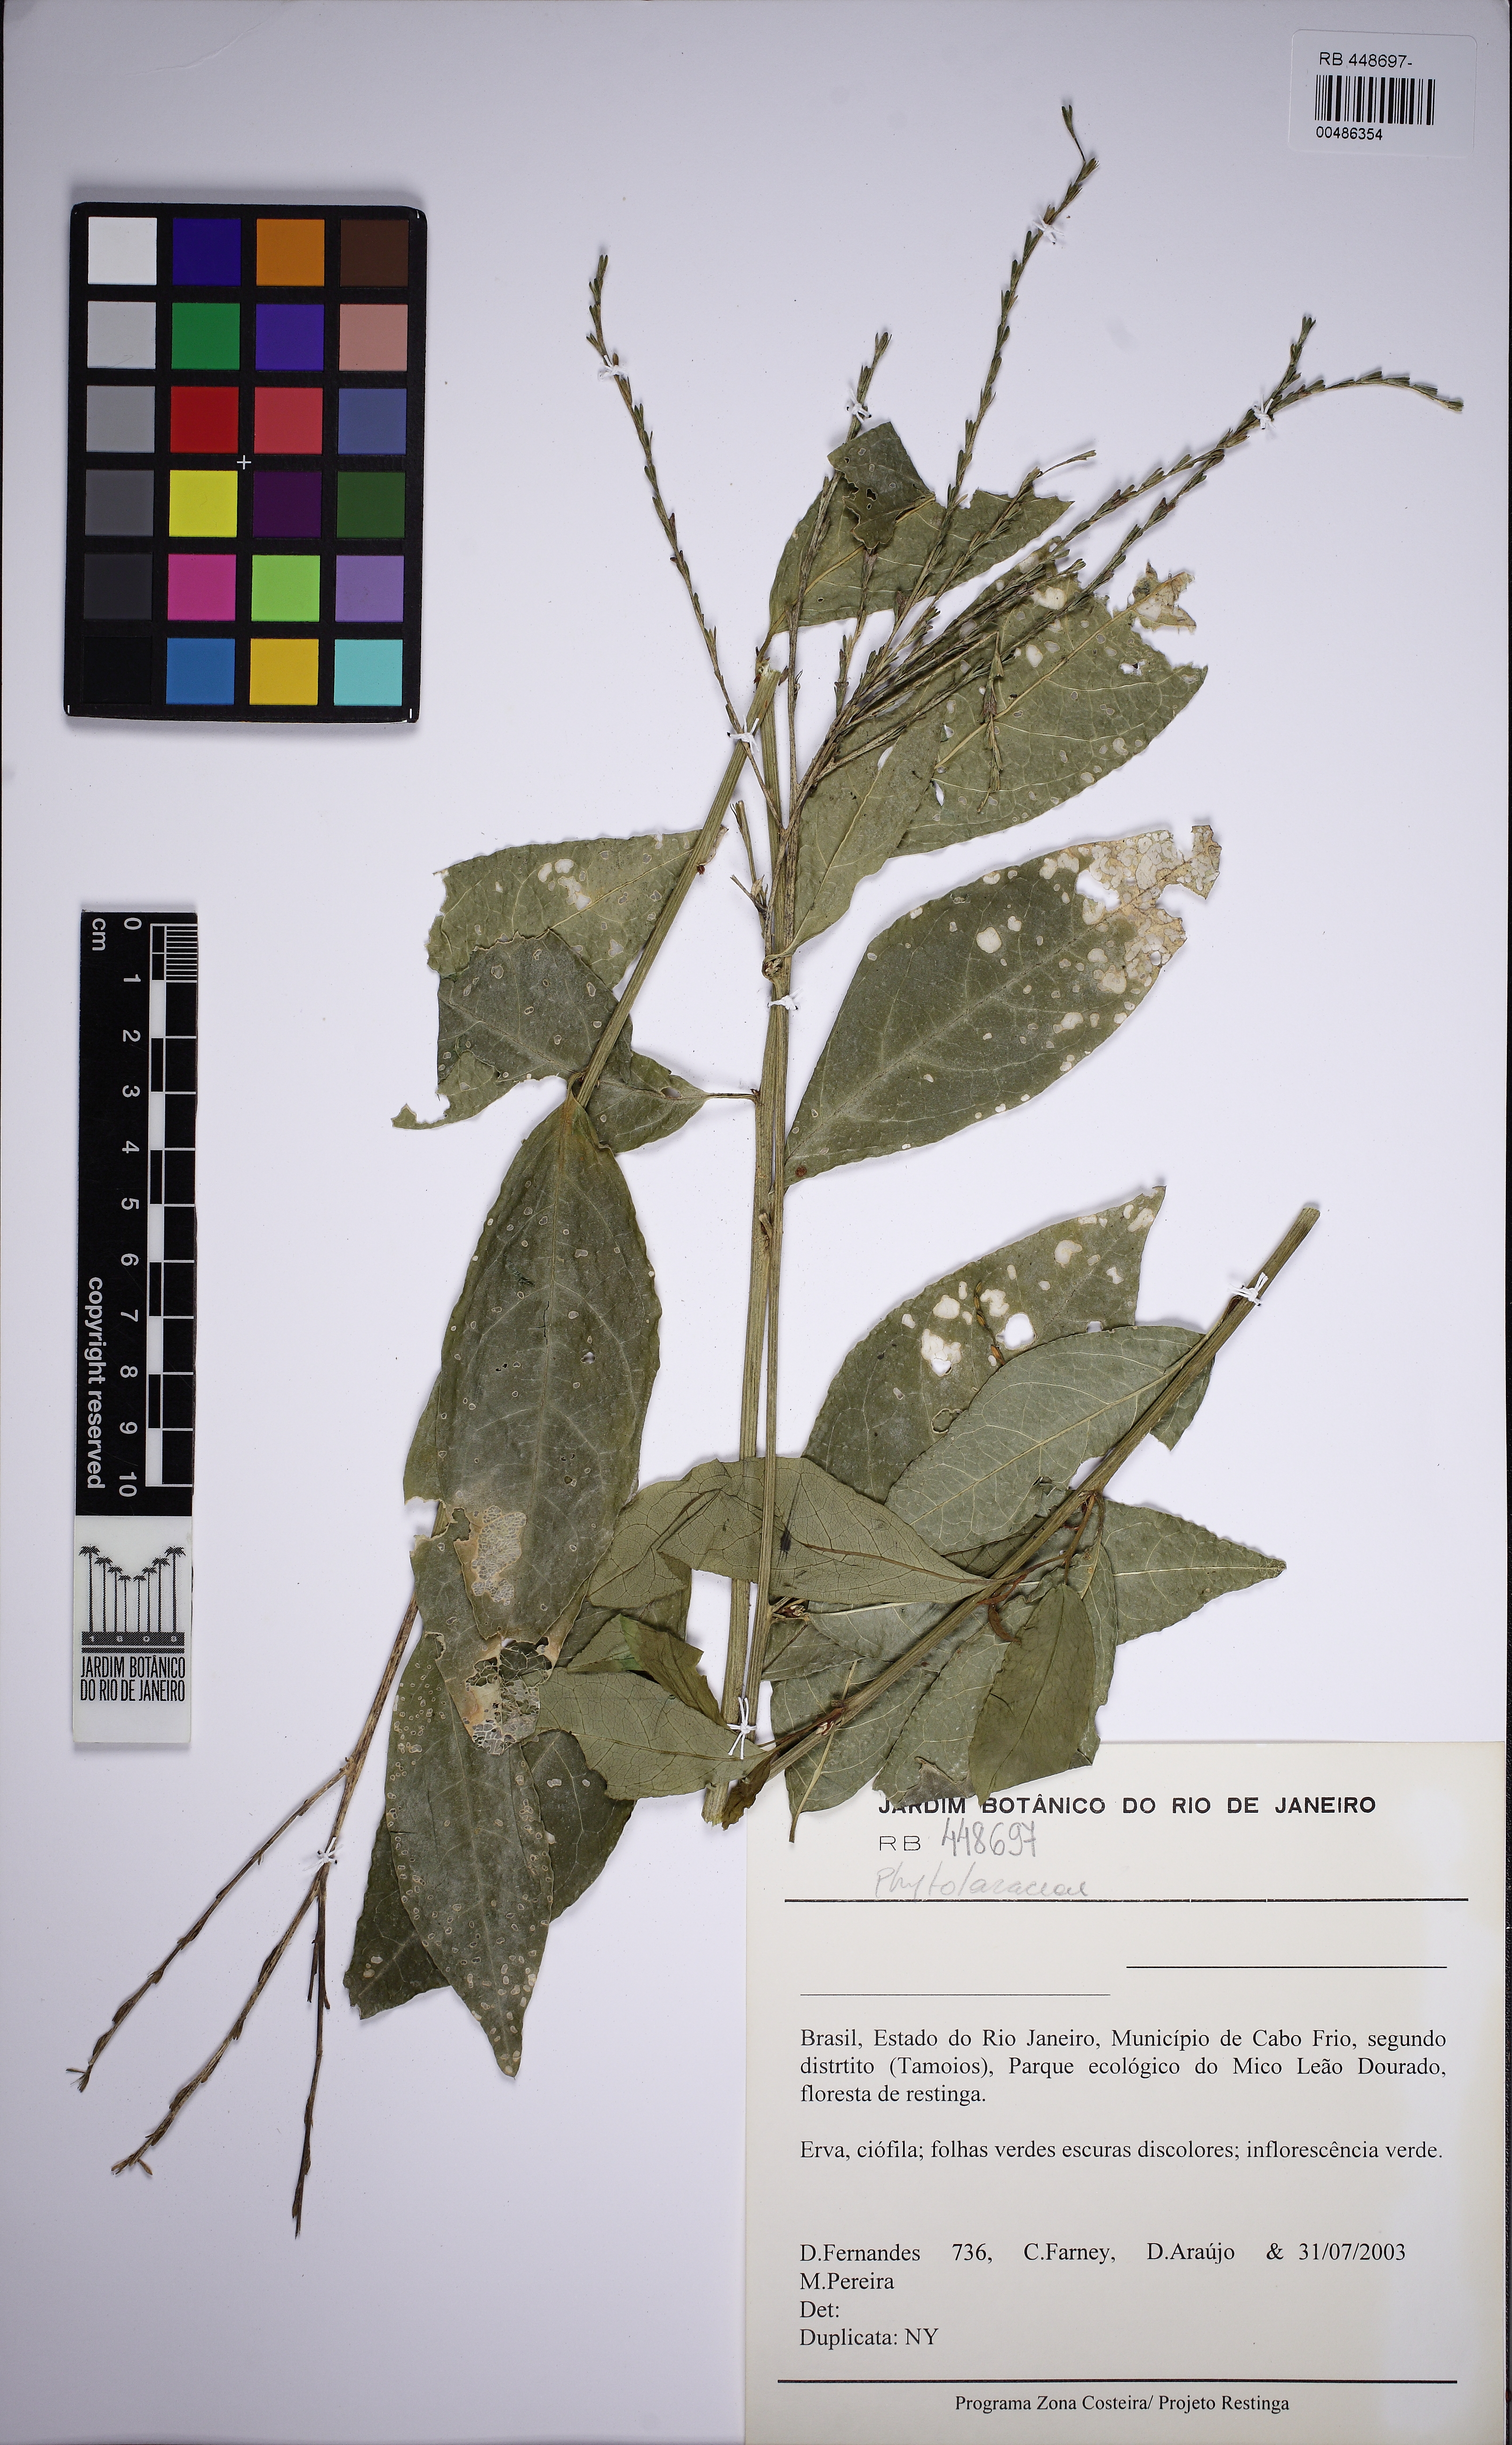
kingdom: Plantae
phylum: Tracheophyta
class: Magnoliopsida
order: Caryophyllales
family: Phytolaccaceae
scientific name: Phytolaccaceae
